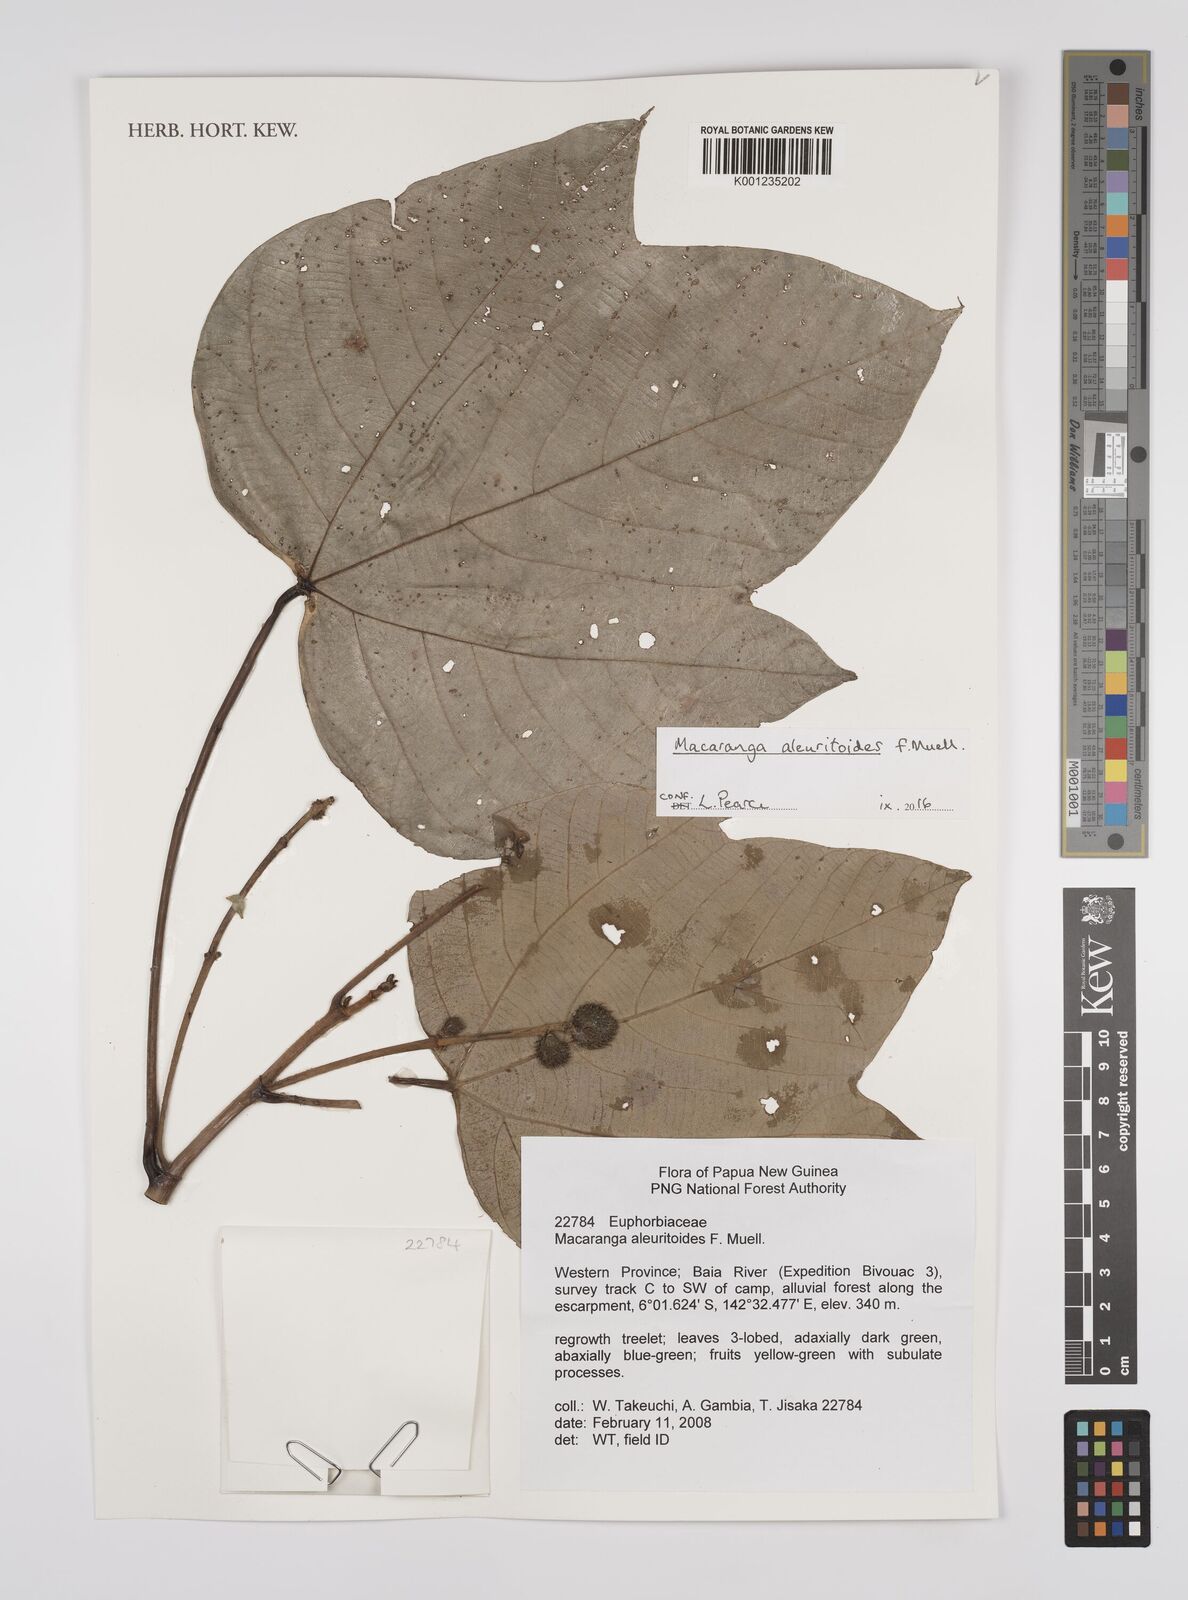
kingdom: Plantae
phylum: Tracheophyta
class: Magnoliopsida
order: Malpighiales
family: Euphorbiaceae
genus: Macaranga
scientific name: Macaranga aleuritoides
